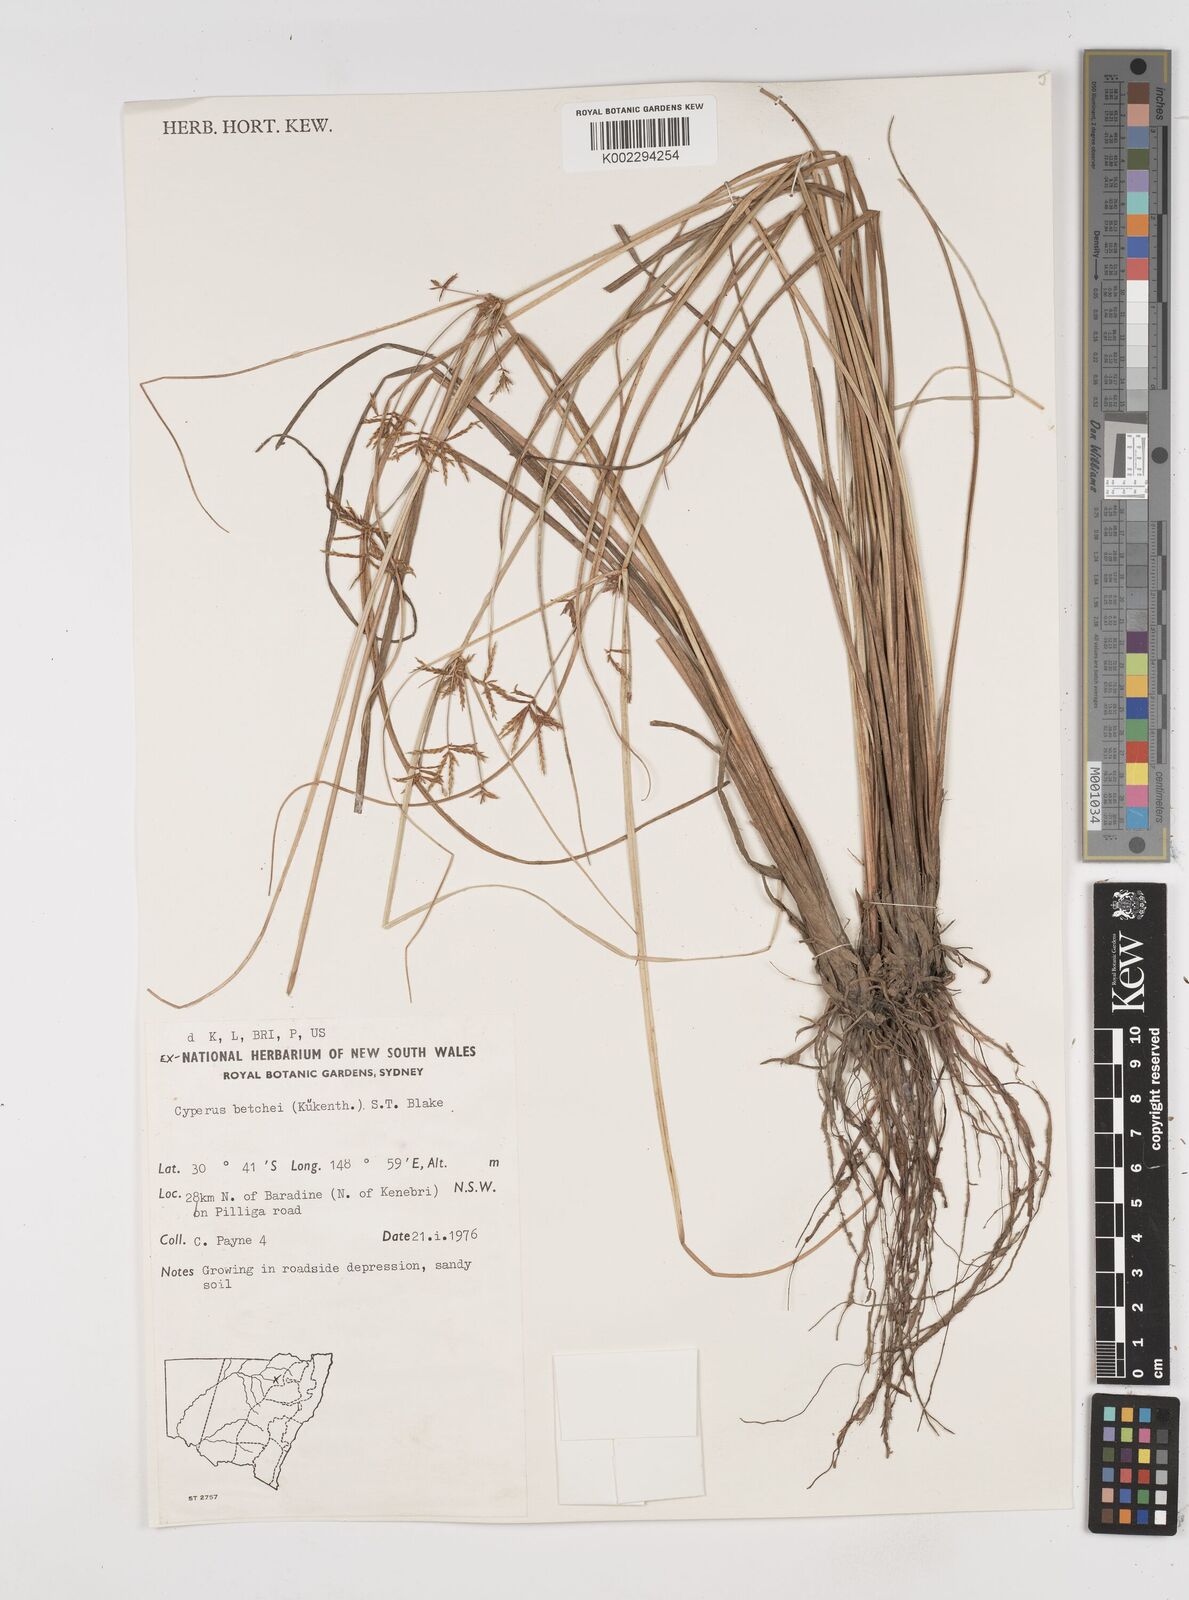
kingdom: Plantae
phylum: Tracheophyta
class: Liliopsida
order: Poales
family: Cyperaceae
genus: Cyperus
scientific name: Cyperus betchei
